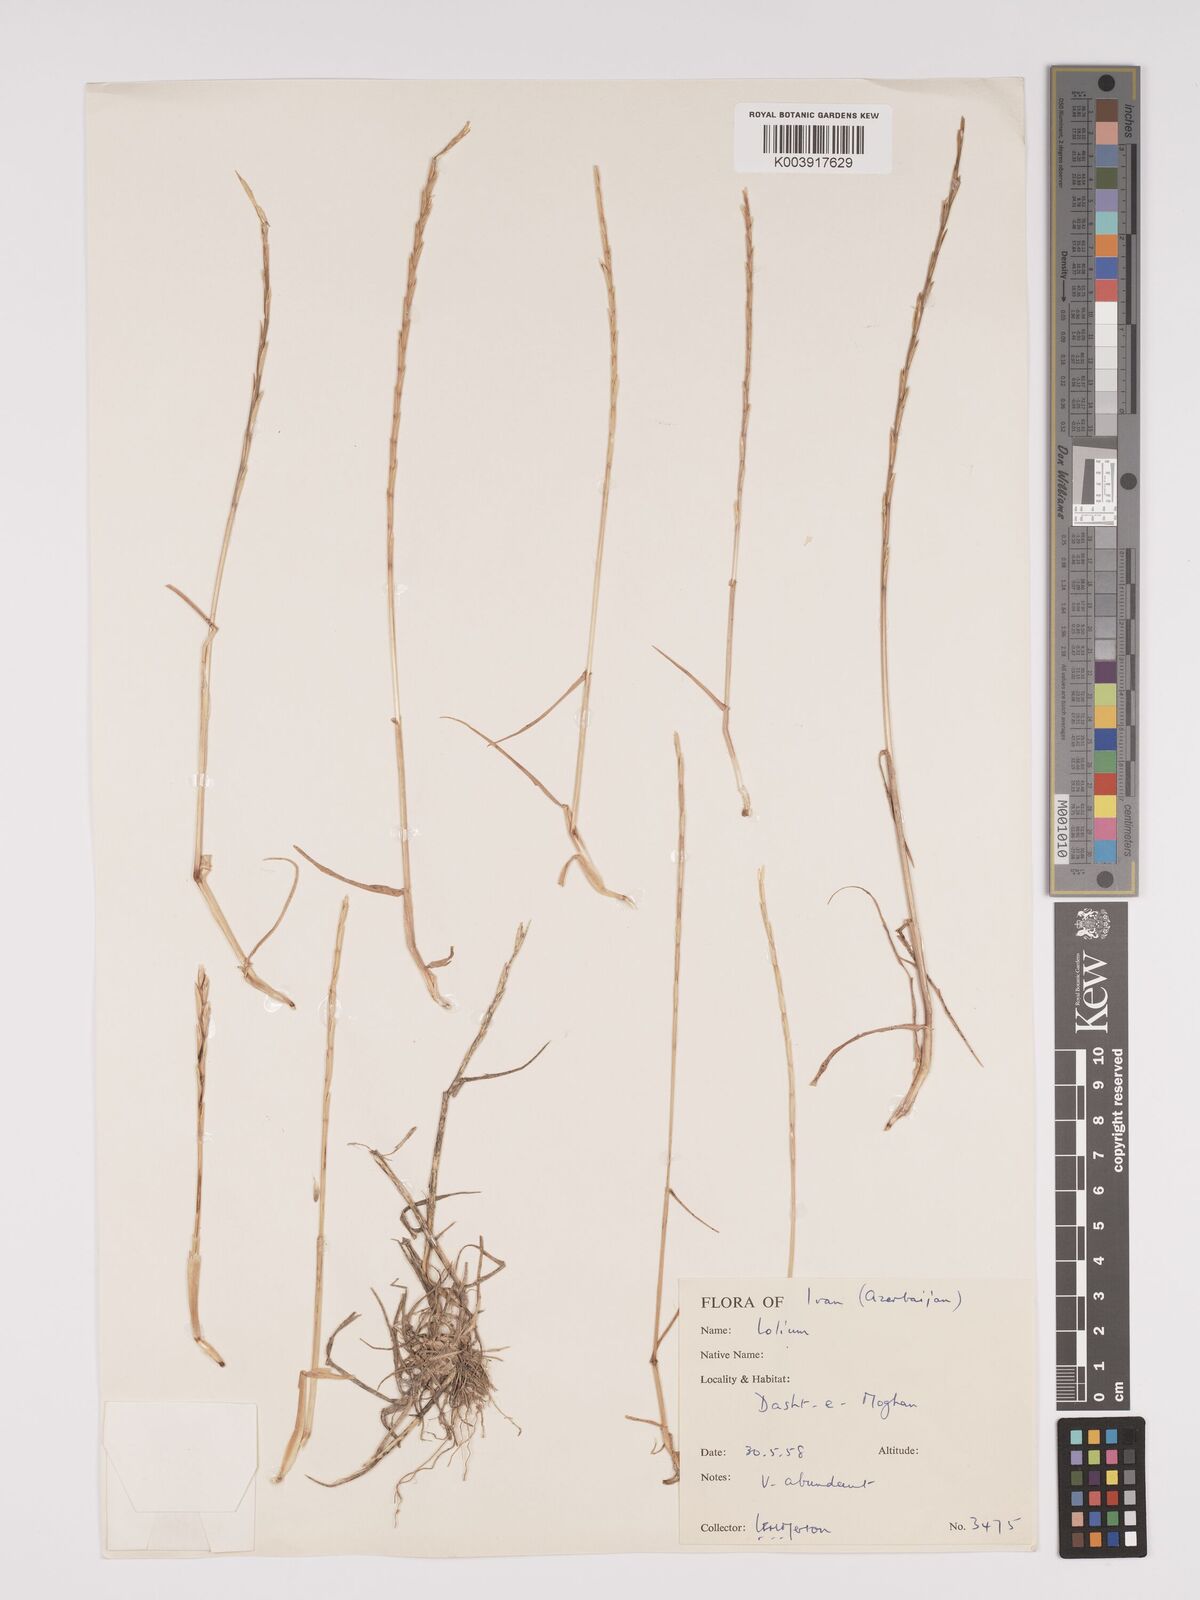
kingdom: Plantae
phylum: Tracheophyta
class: Liliopsida
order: Poales
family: Poaceae
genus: Lolium
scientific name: Lolium
